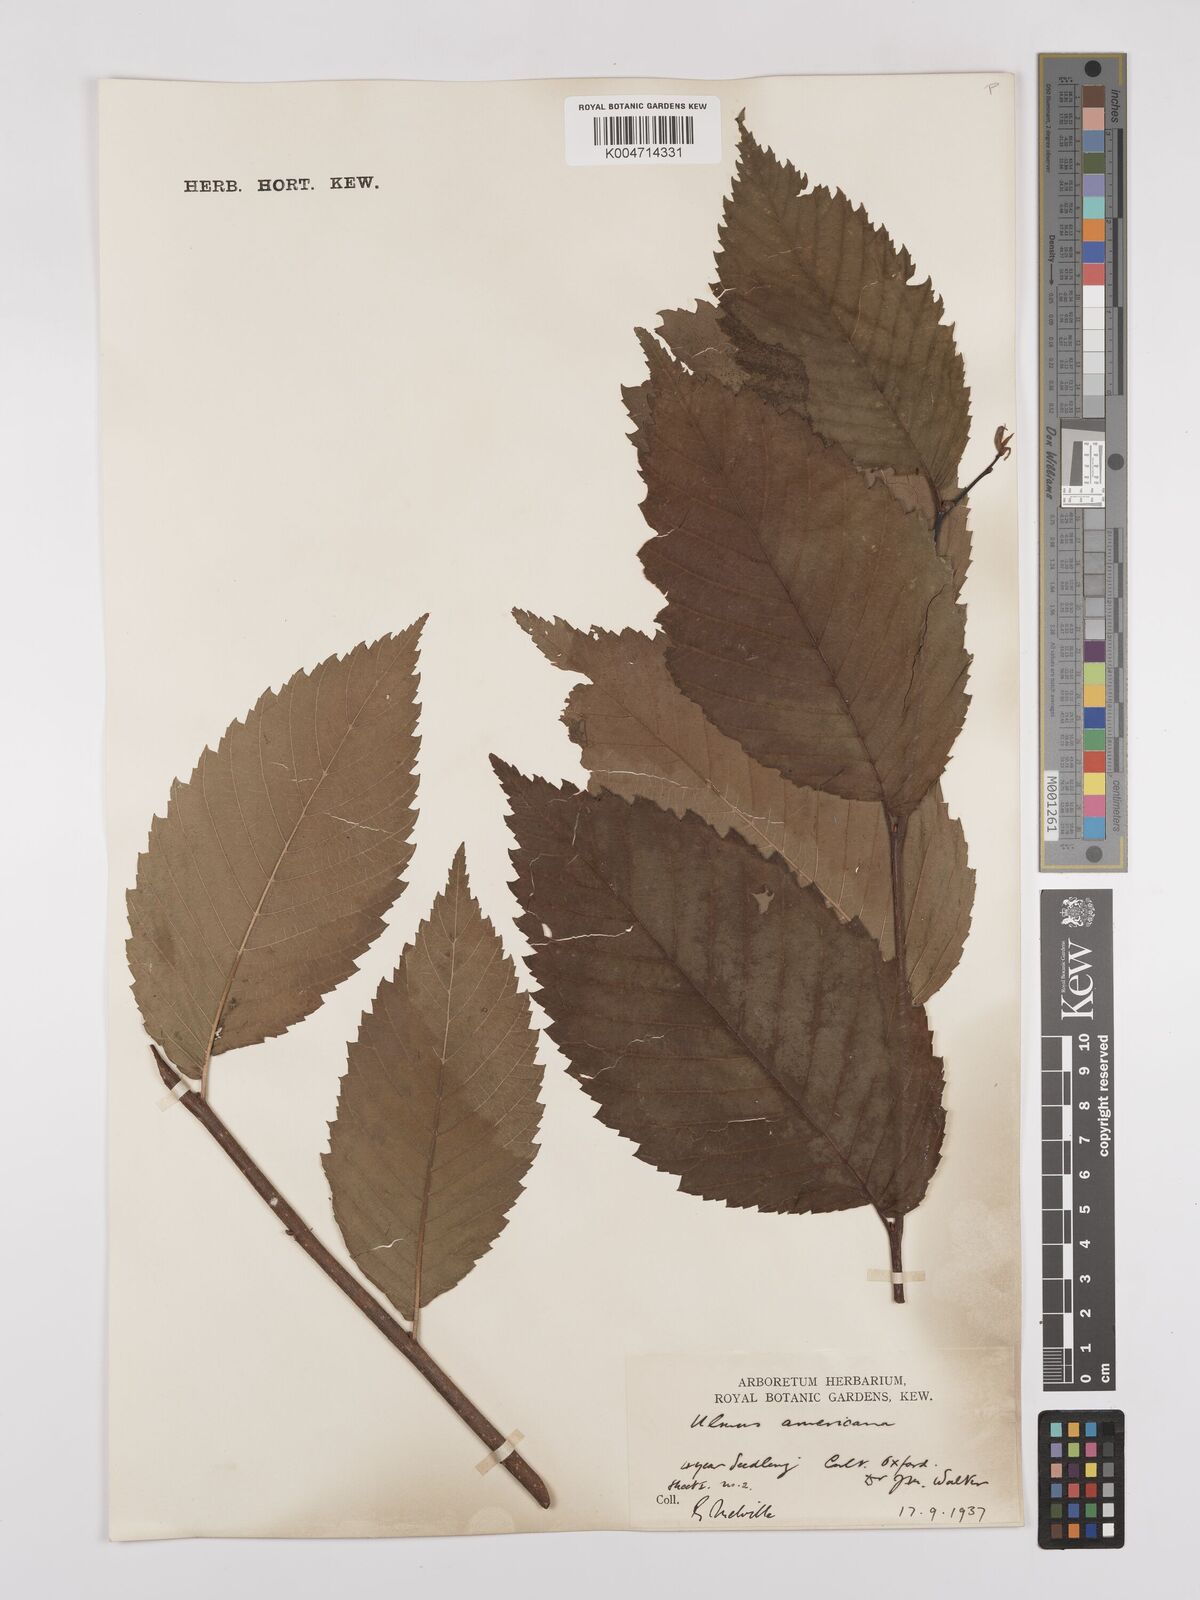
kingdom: Plantae
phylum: Tracheophyta
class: Magnoliopsida
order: Rosales
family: Ulmaceae
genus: Ulmus
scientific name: Ulmus americana
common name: American elm
